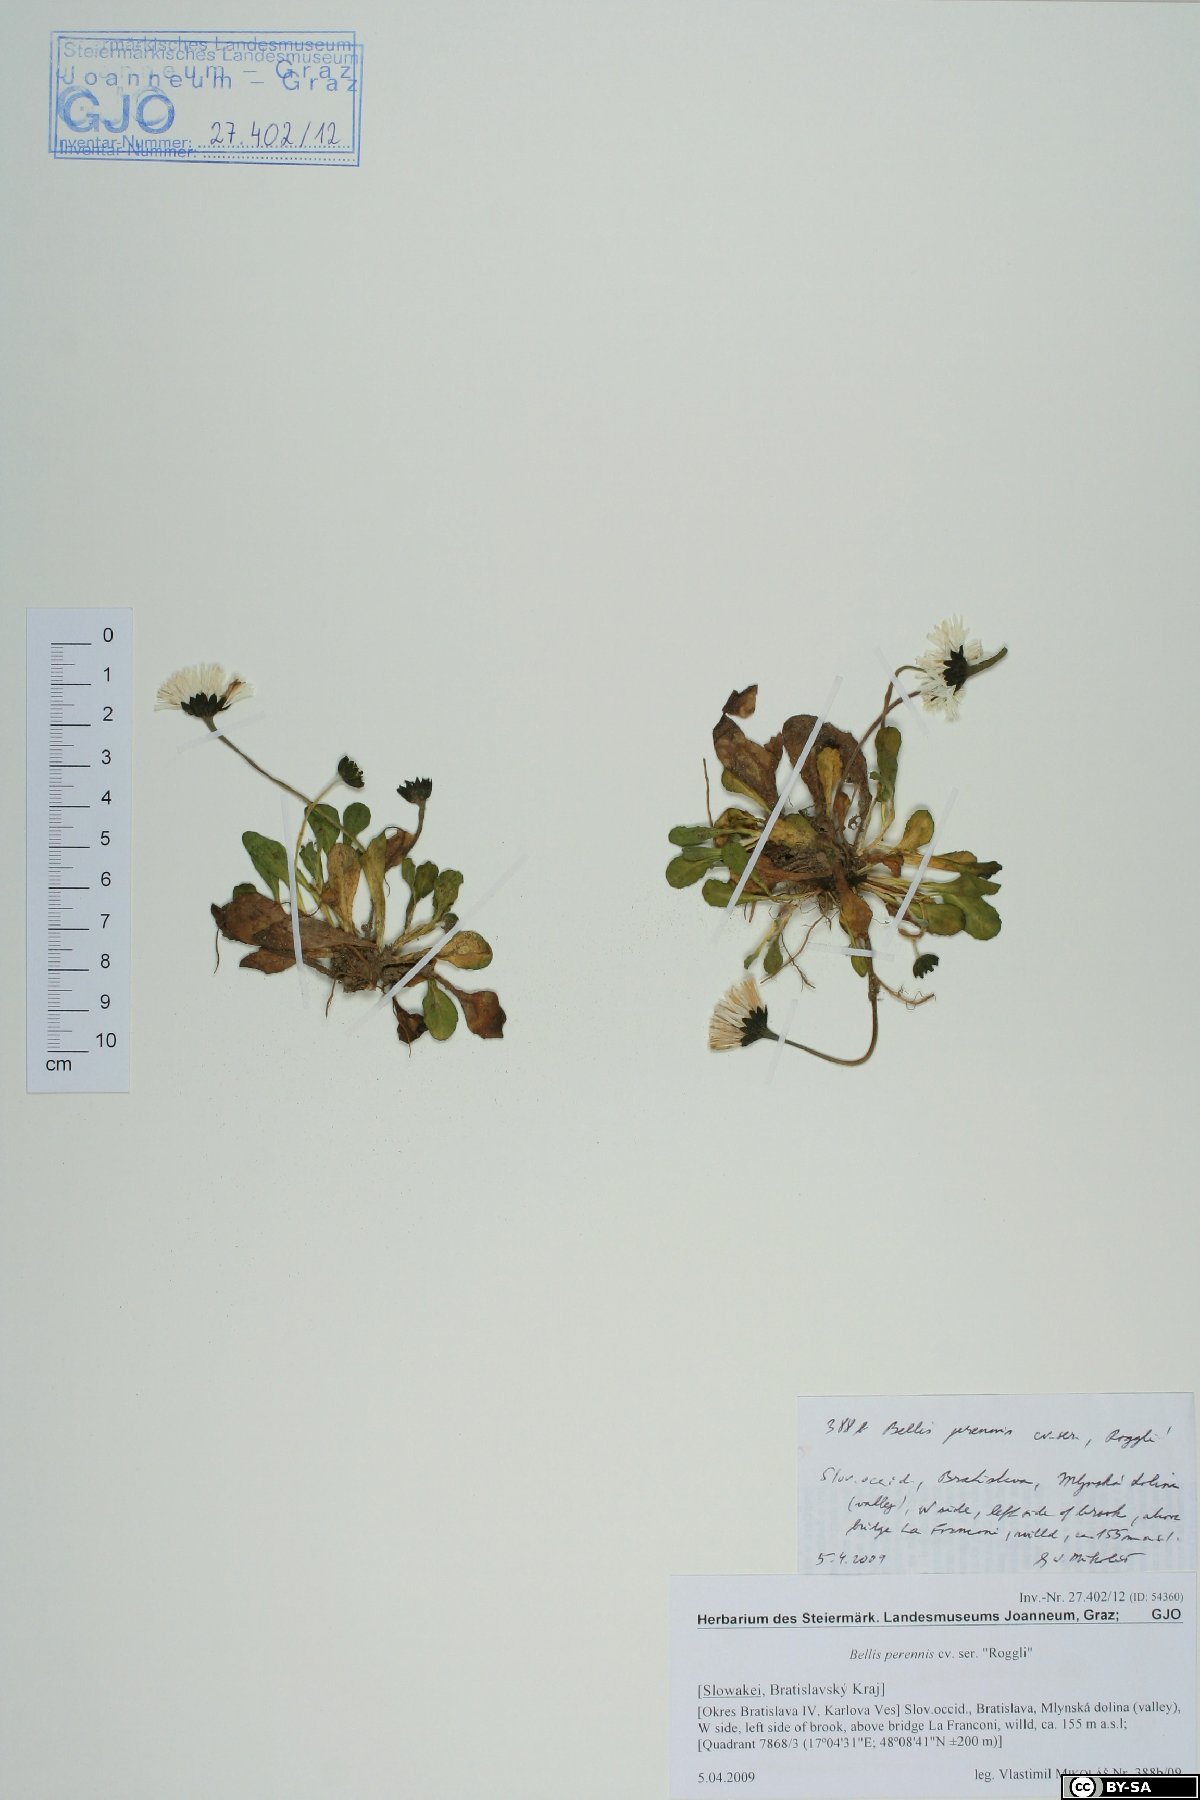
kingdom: Plantae
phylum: Tracheophyta
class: Magnoliopsida
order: Asterales
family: Asteraceae
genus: Bellis
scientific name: Bellis perennis
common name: Lawndaisy
